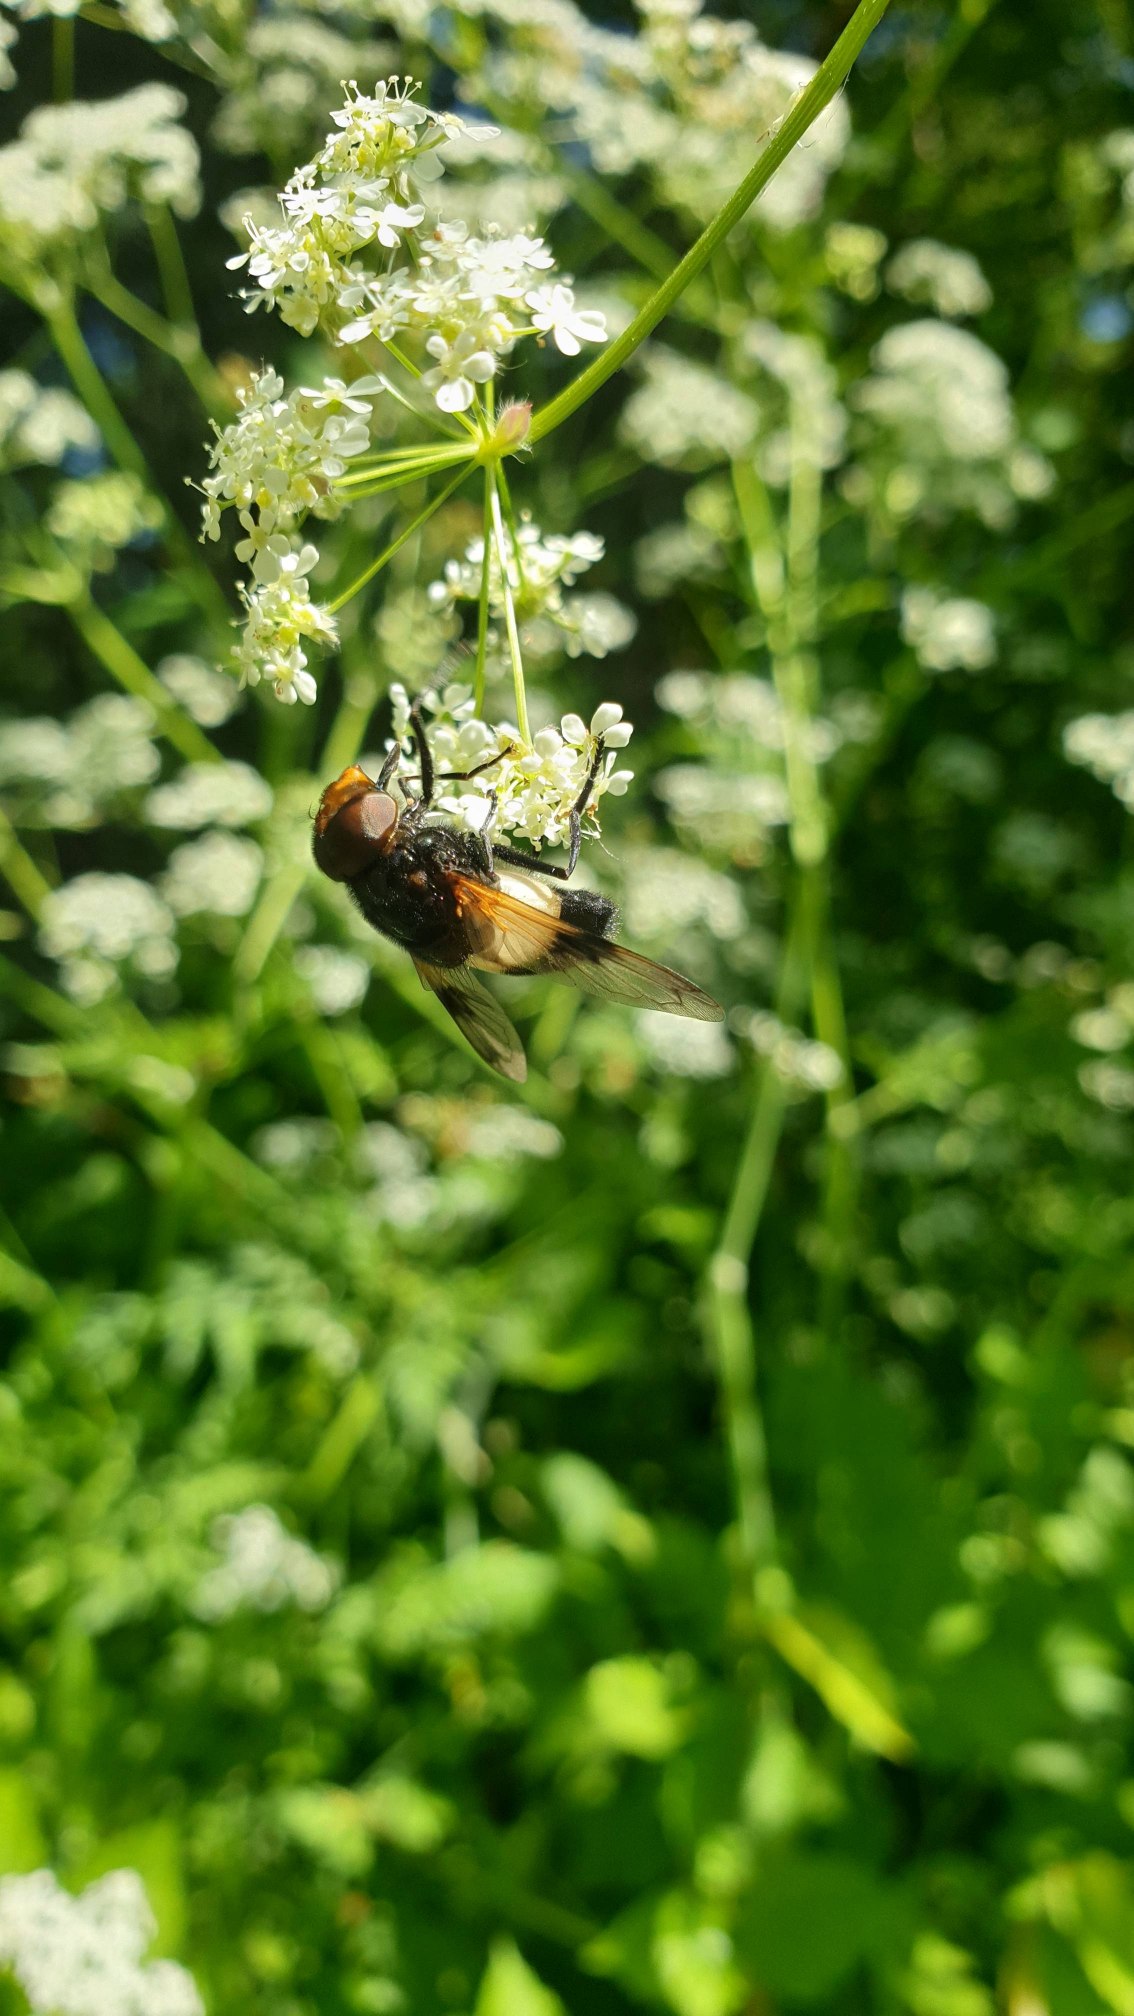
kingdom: Animalia
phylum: Arthropoda
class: Insecta
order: Diptera
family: Syrphidae
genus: Volucella
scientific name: Volucella pellucens
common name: Hvidbåndet humlesvirreflue
